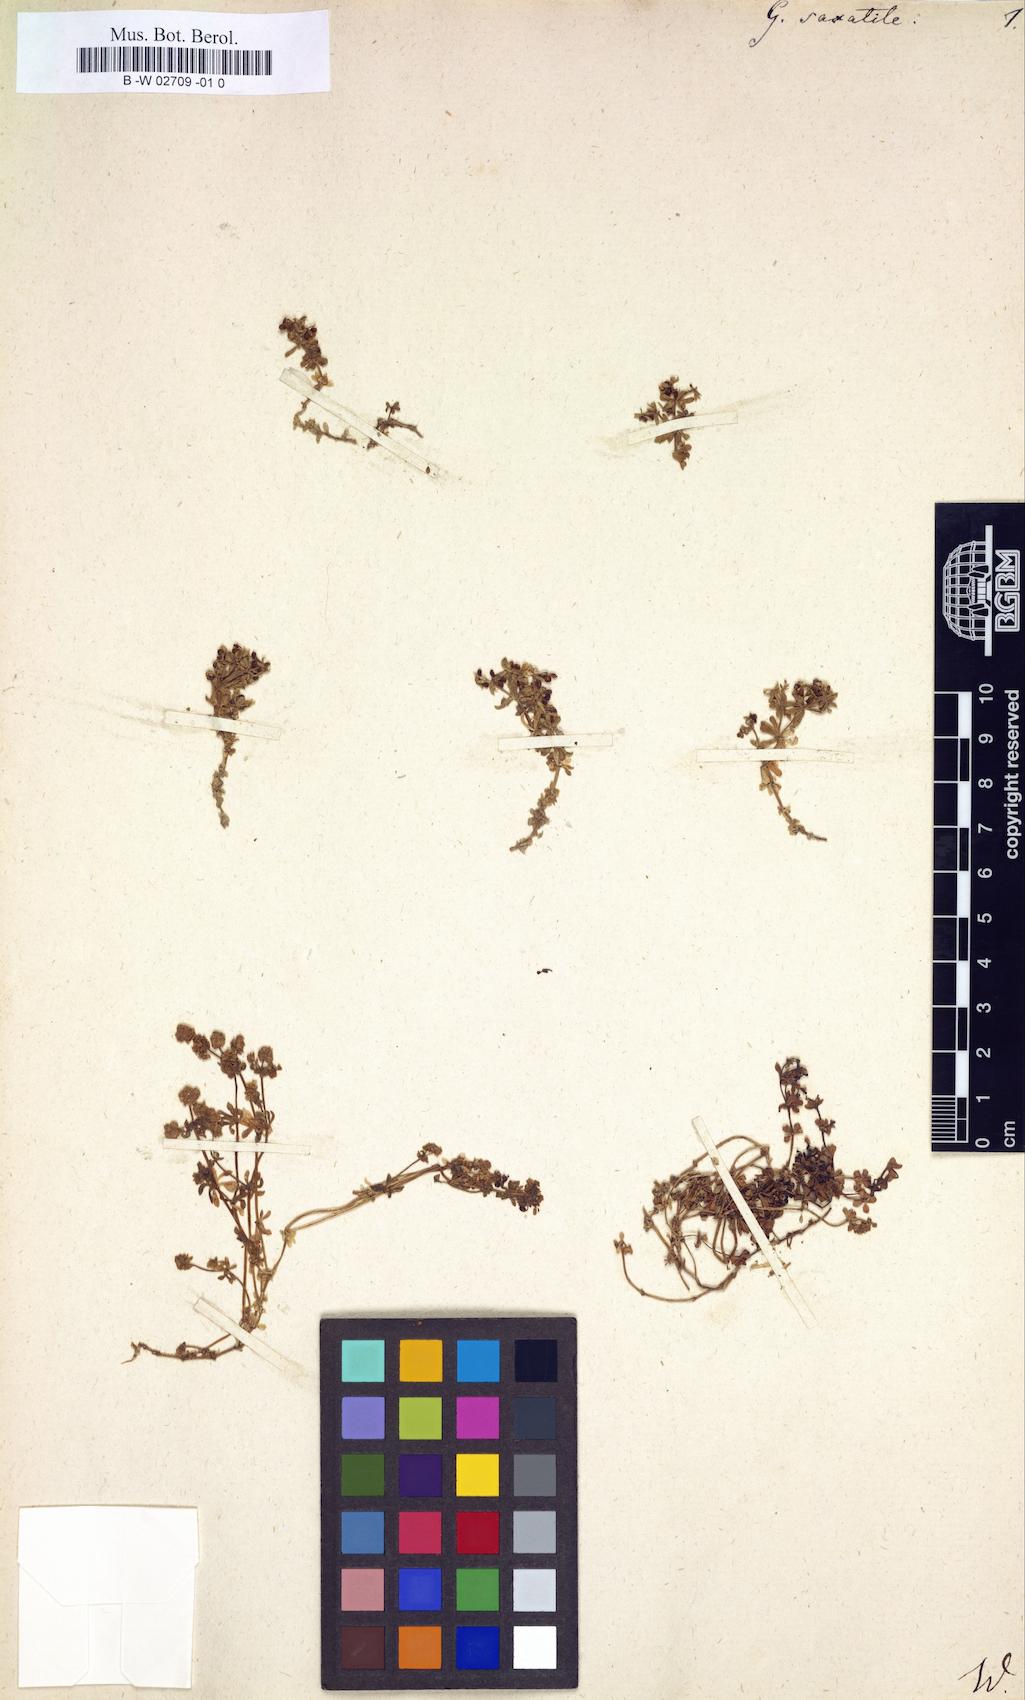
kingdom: Plantae
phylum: Tracheophyta
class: Magnoliopsida
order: Gentianales
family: Rubiaceae
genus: Galium
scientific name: Galium saxatile
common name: Heath bedstraw
